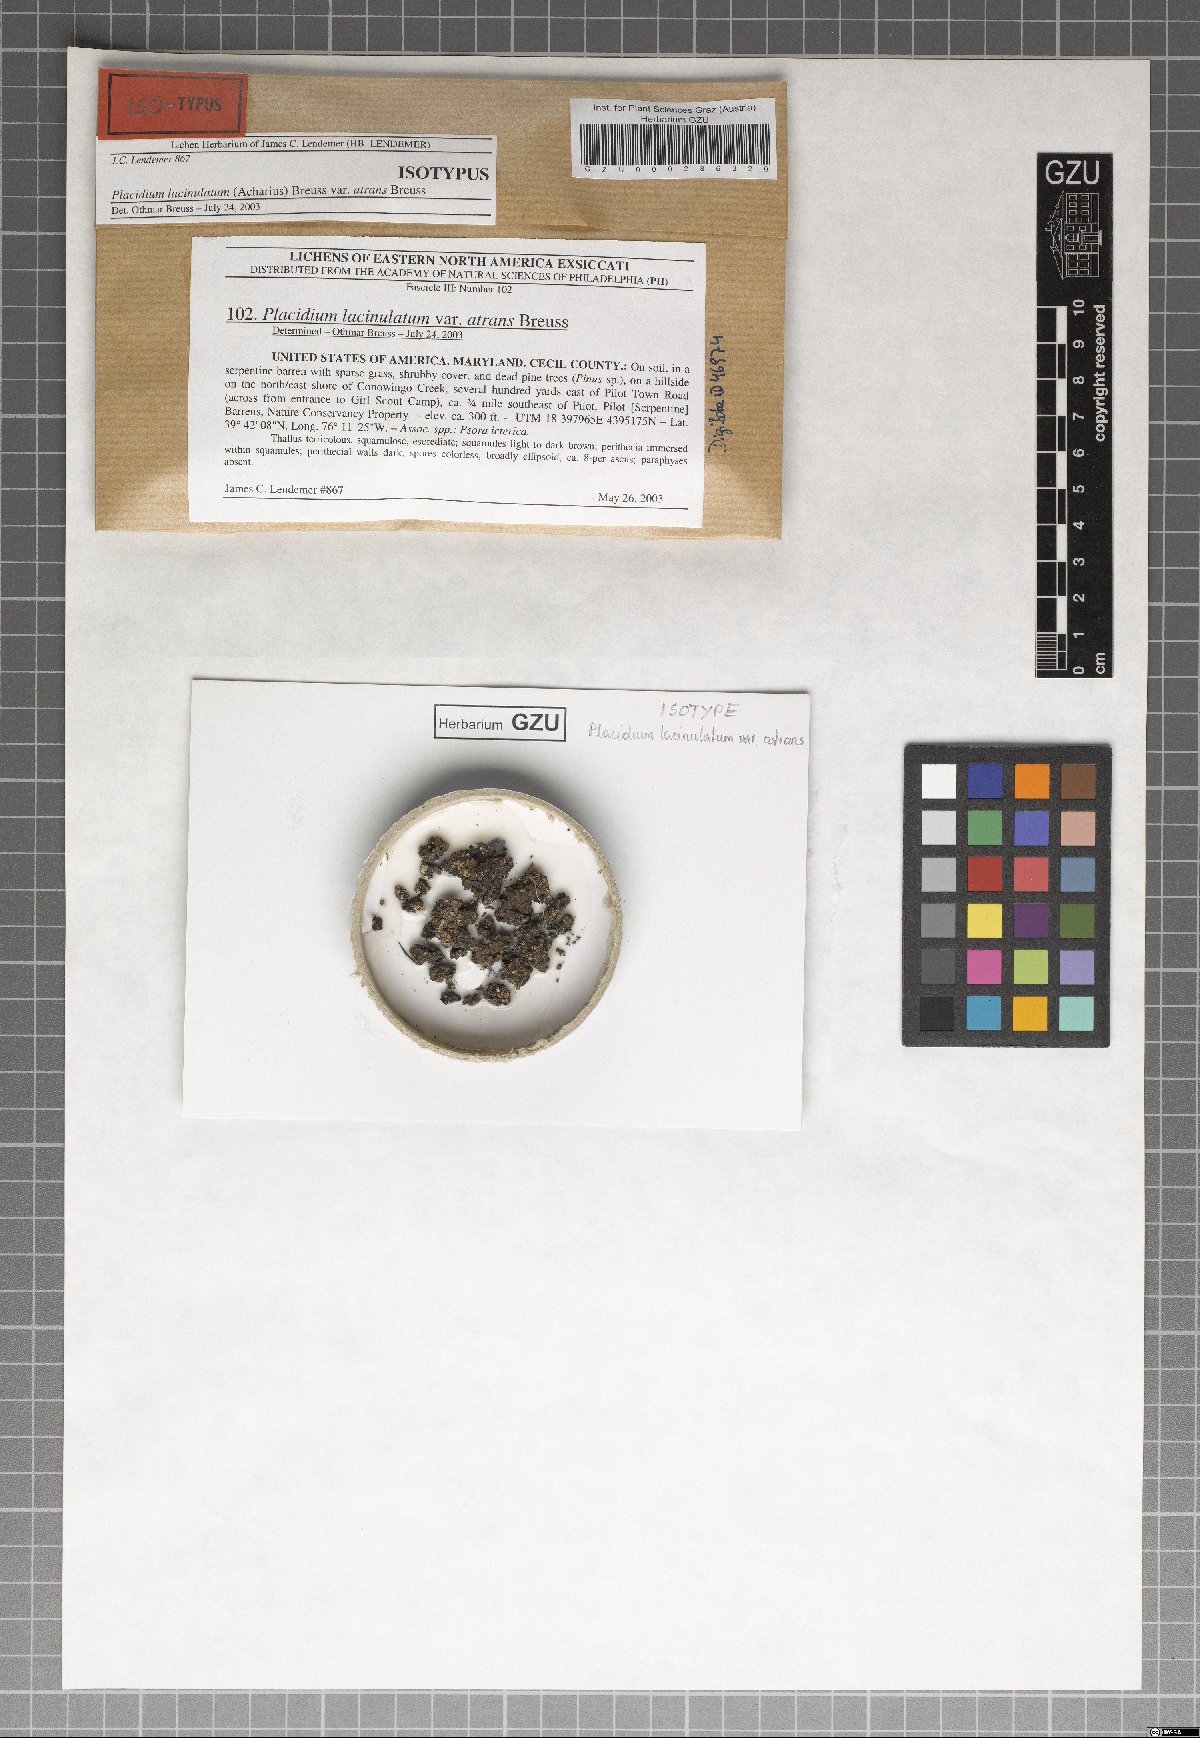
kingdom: Fungi
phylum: Ascomycota
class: Eurotiomycetes
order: Verrucariales
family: Verrucariaceae
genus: Clavascidium
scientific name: Clavascidium lacinulatum
